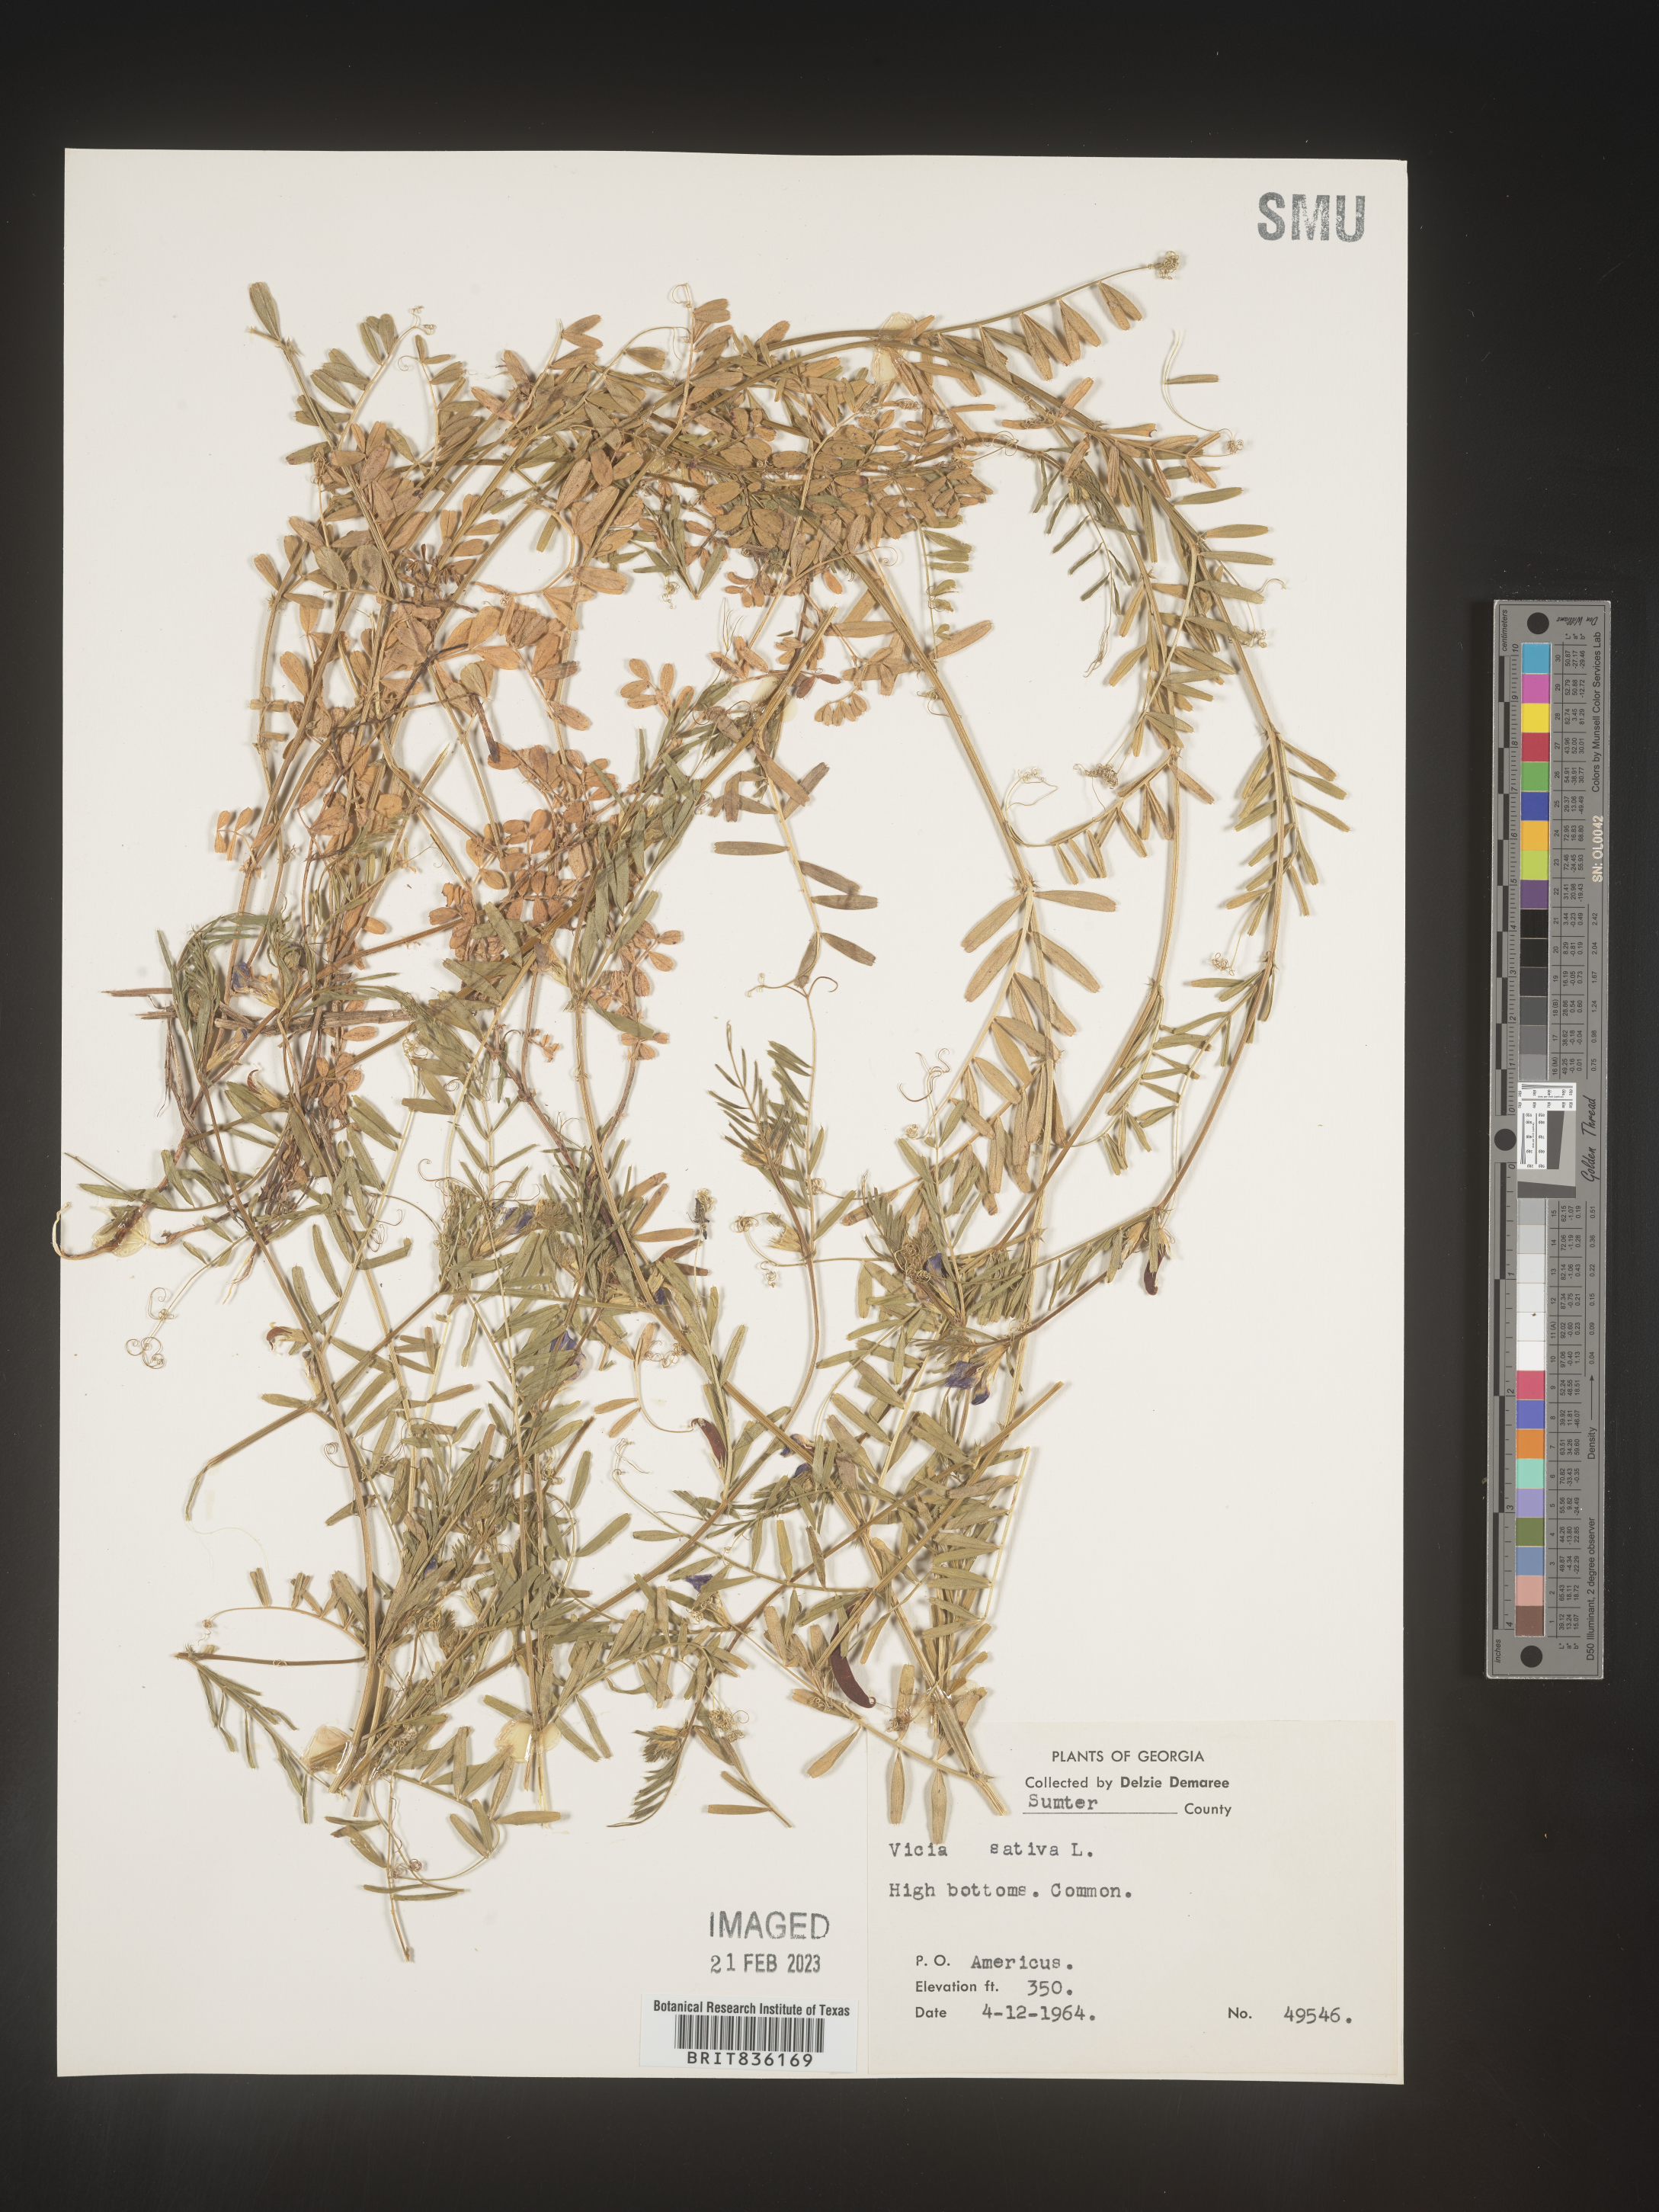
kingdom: Plantae
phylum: Tracheophyta
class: Magnoliopsida
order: Fabales
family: Fabaceae
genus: Vicia
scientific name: Vicia sativa
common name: Garden vetch
